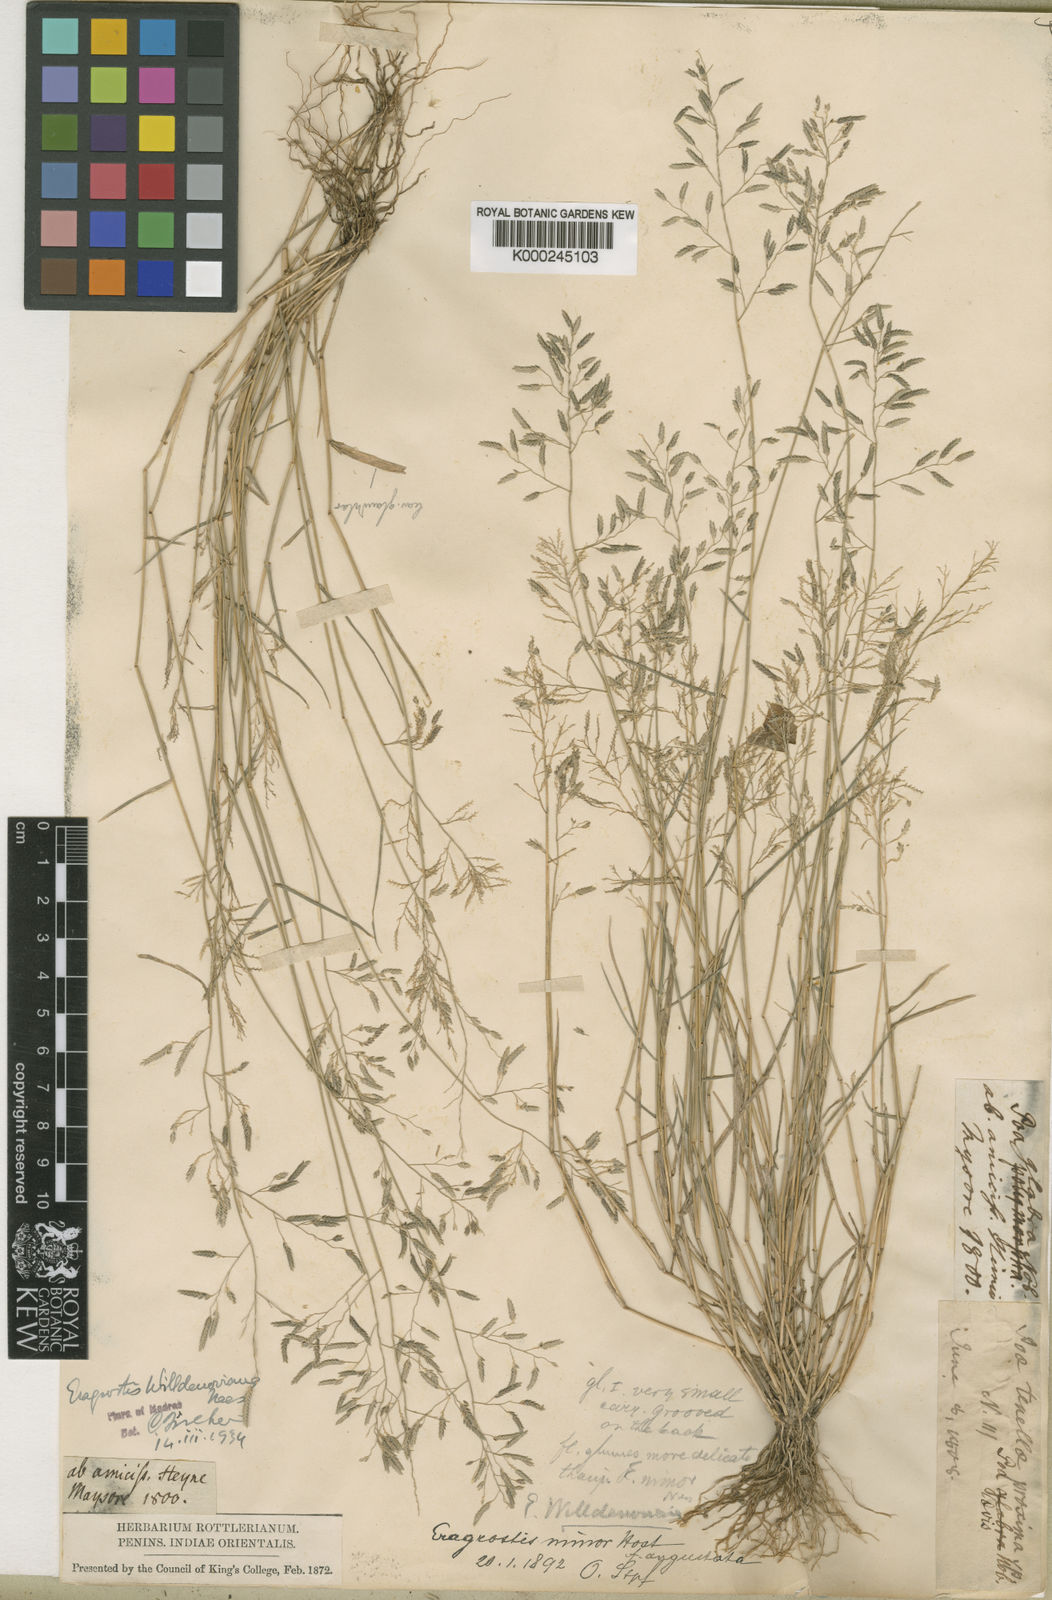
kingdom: Plantae
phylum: Tracheophyta
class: Liliopsida
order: Poales
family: Poaceae
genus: Eragrostis
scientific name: Eragrostis maderaspatana
